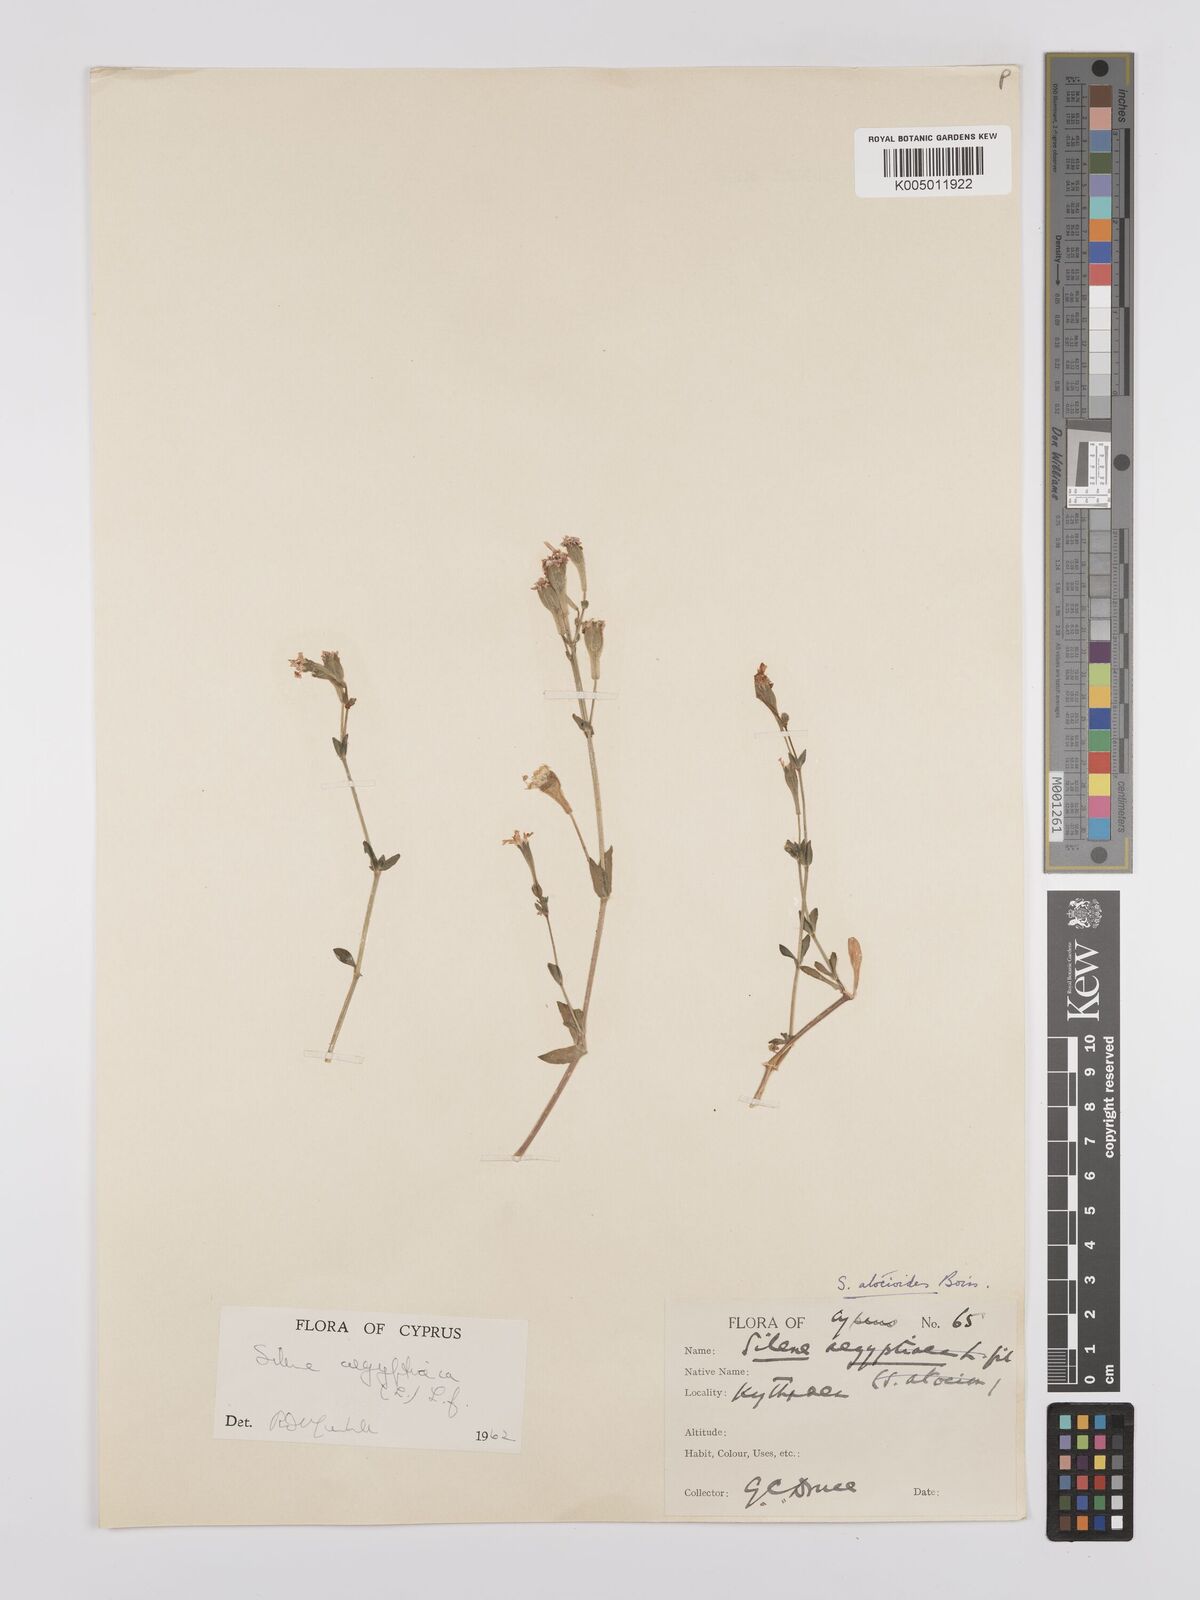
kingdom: Plantae
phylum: Tracheophyta
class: Magnoliopsida
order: Caryophyllales
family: Caryophyllaceae
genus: Silene
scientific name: Silene aegyptiaca
